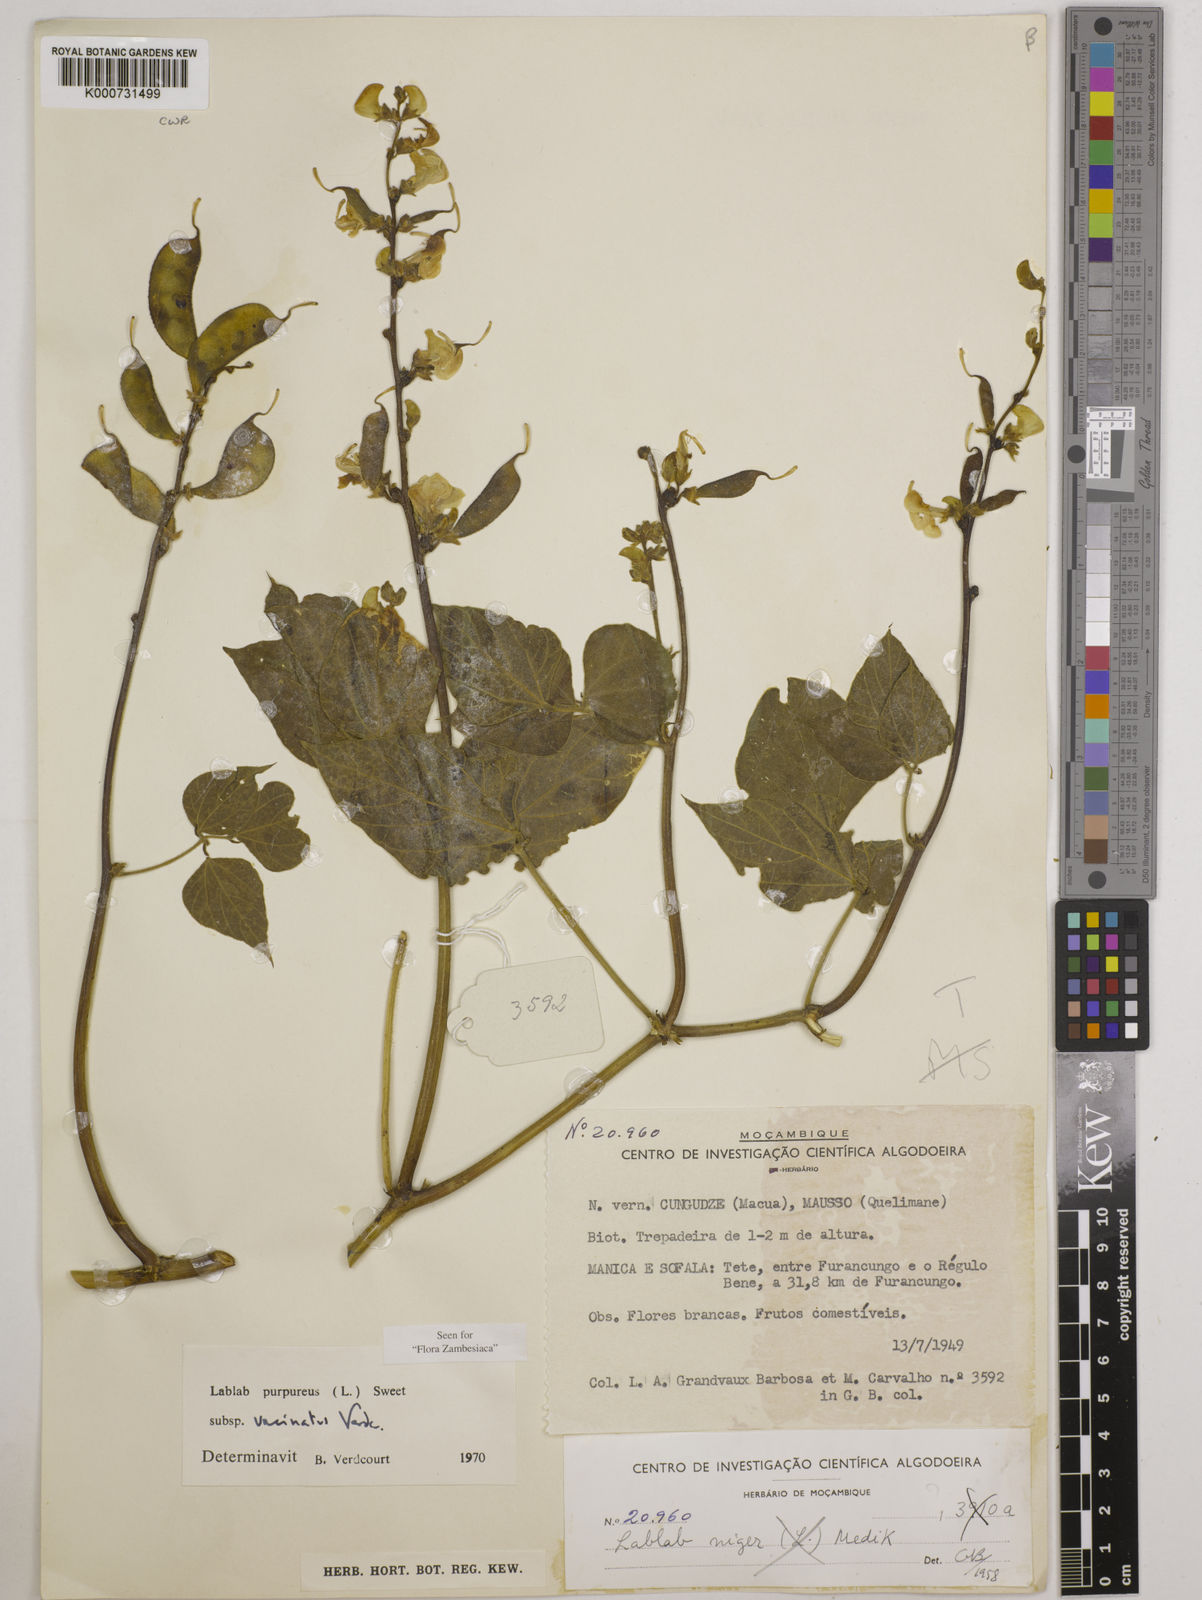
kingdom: Plantae
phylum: Tracheophyta
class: Magnoliopsida
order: Fabales
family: Fabaceae
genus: Lablab
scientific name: Lablab purpureus
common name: Lablab-bean
